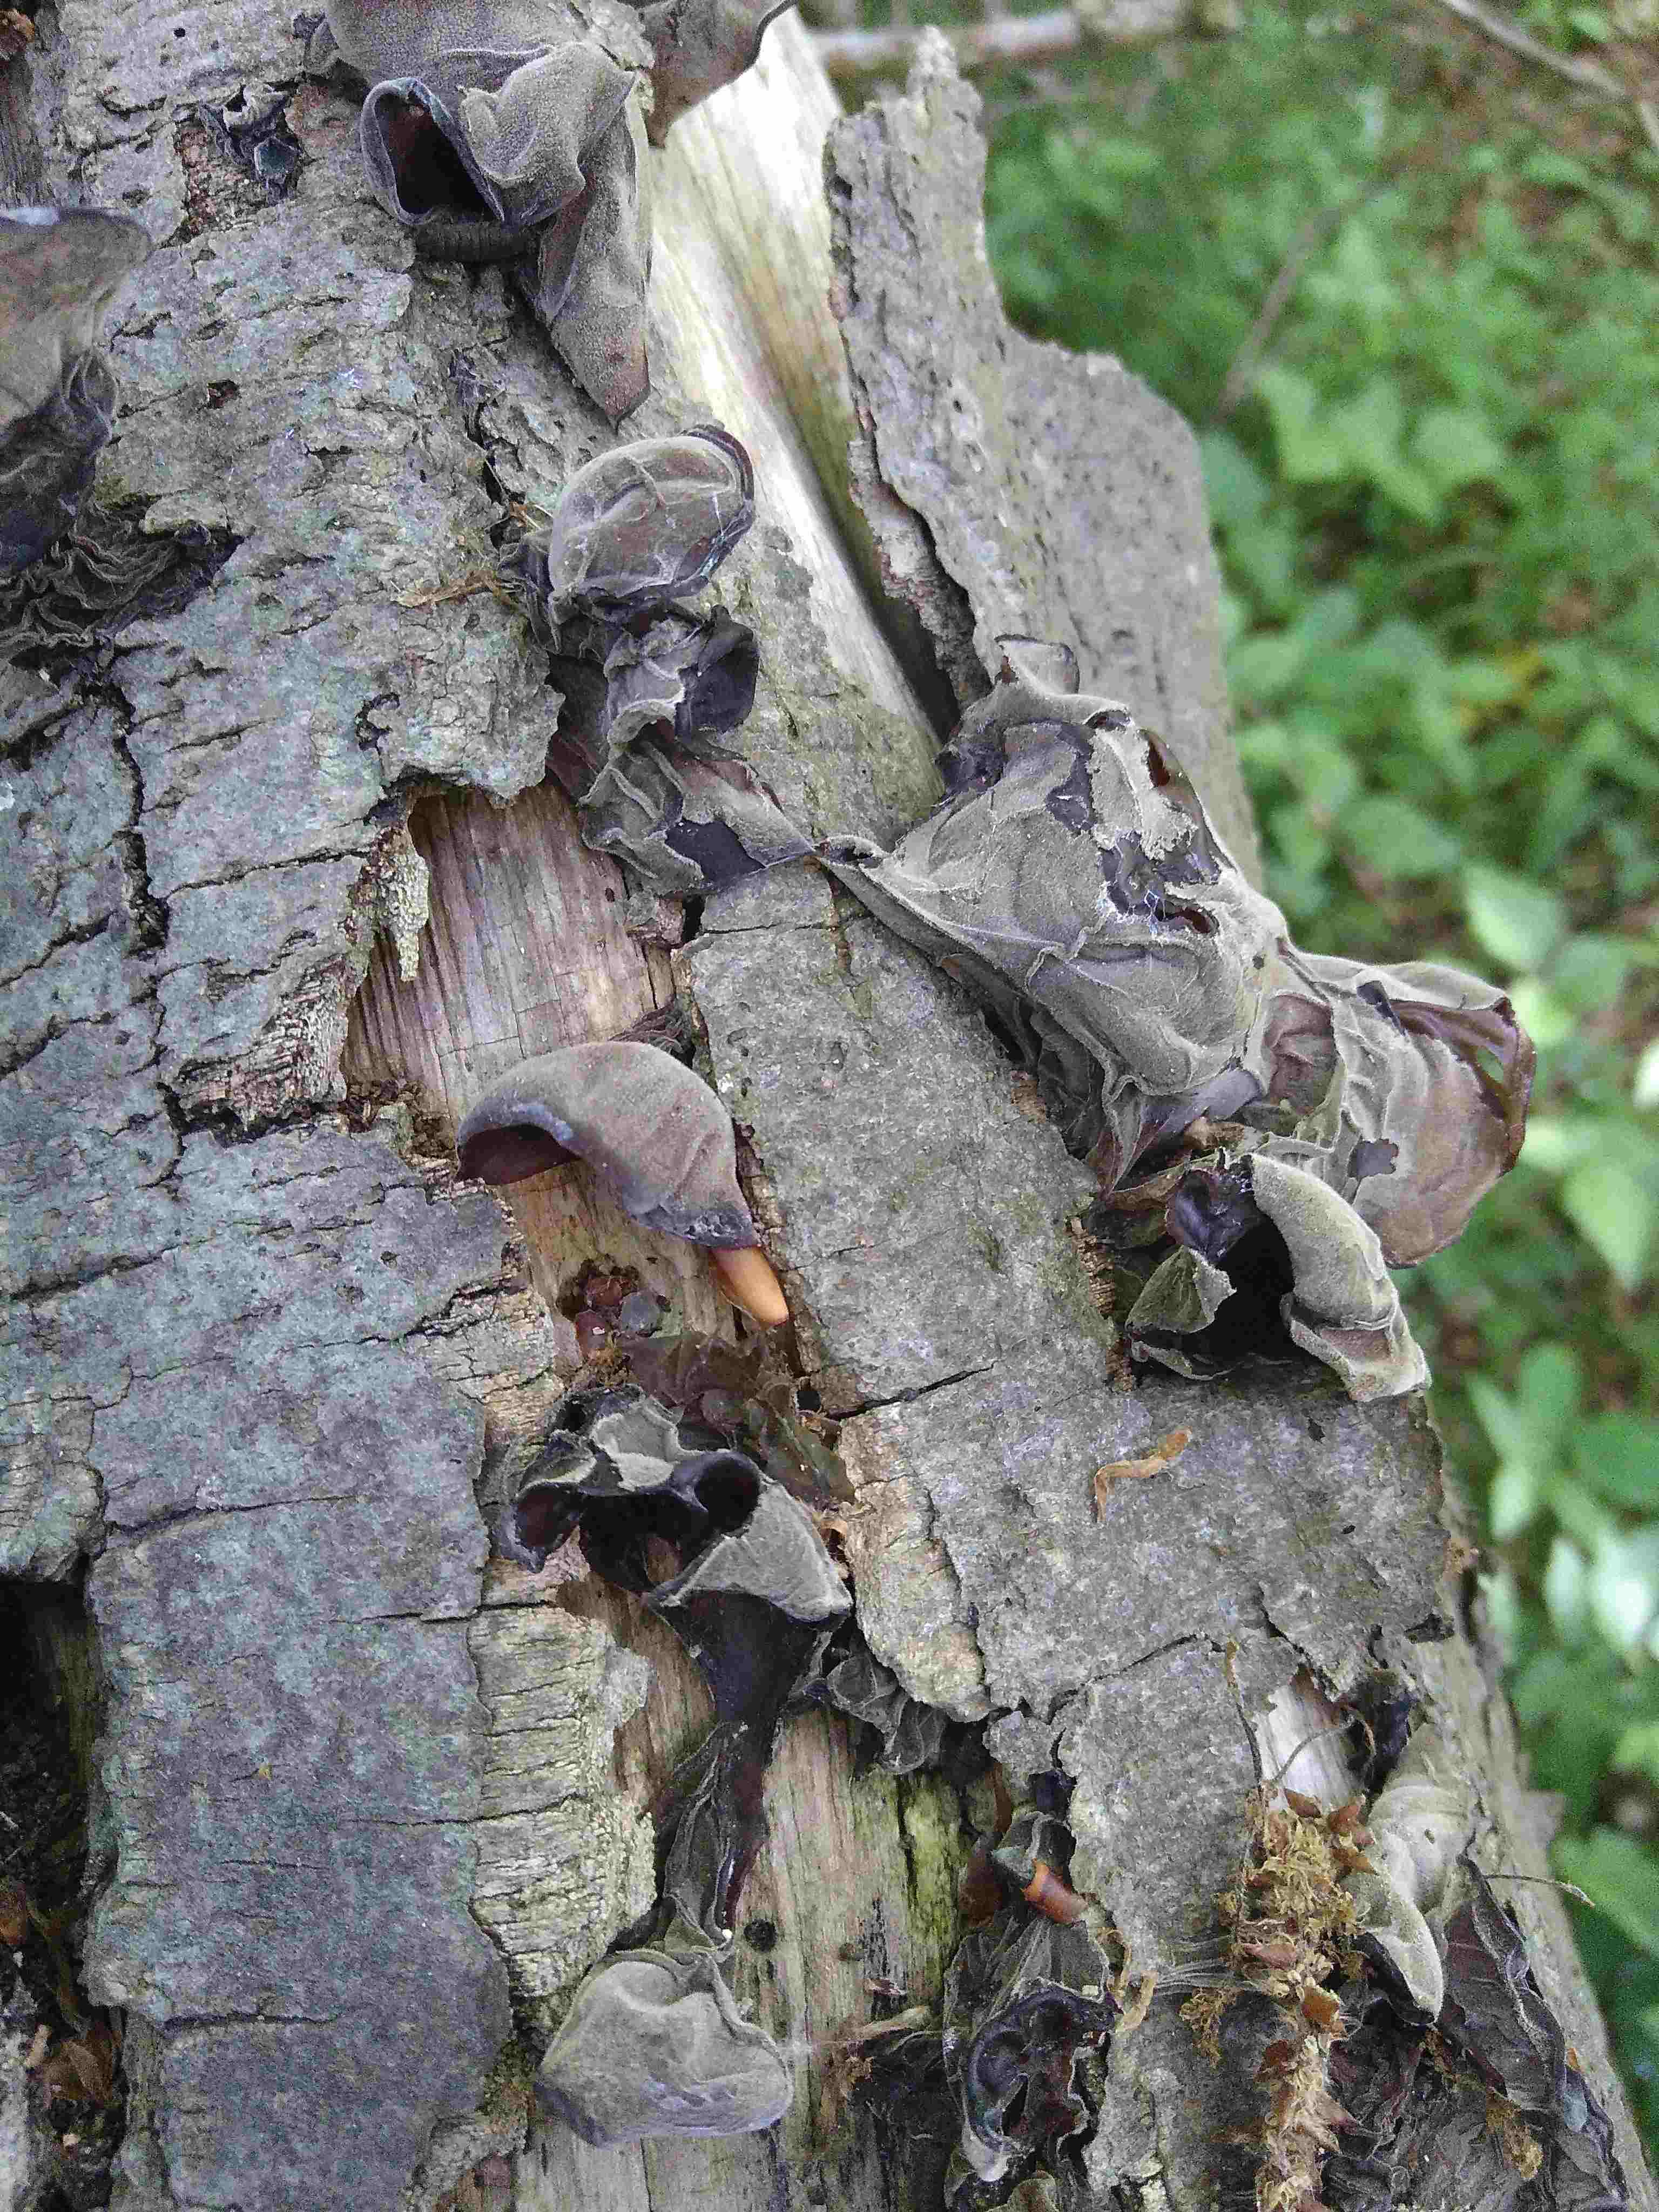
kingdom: Fungi
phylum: Basidiomycota
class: Agaricomycetes
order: Auriculariales
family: Auriculariaceae
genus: Auricularia
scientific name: Auricularia auricula-judae
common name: almindelig judasøre
